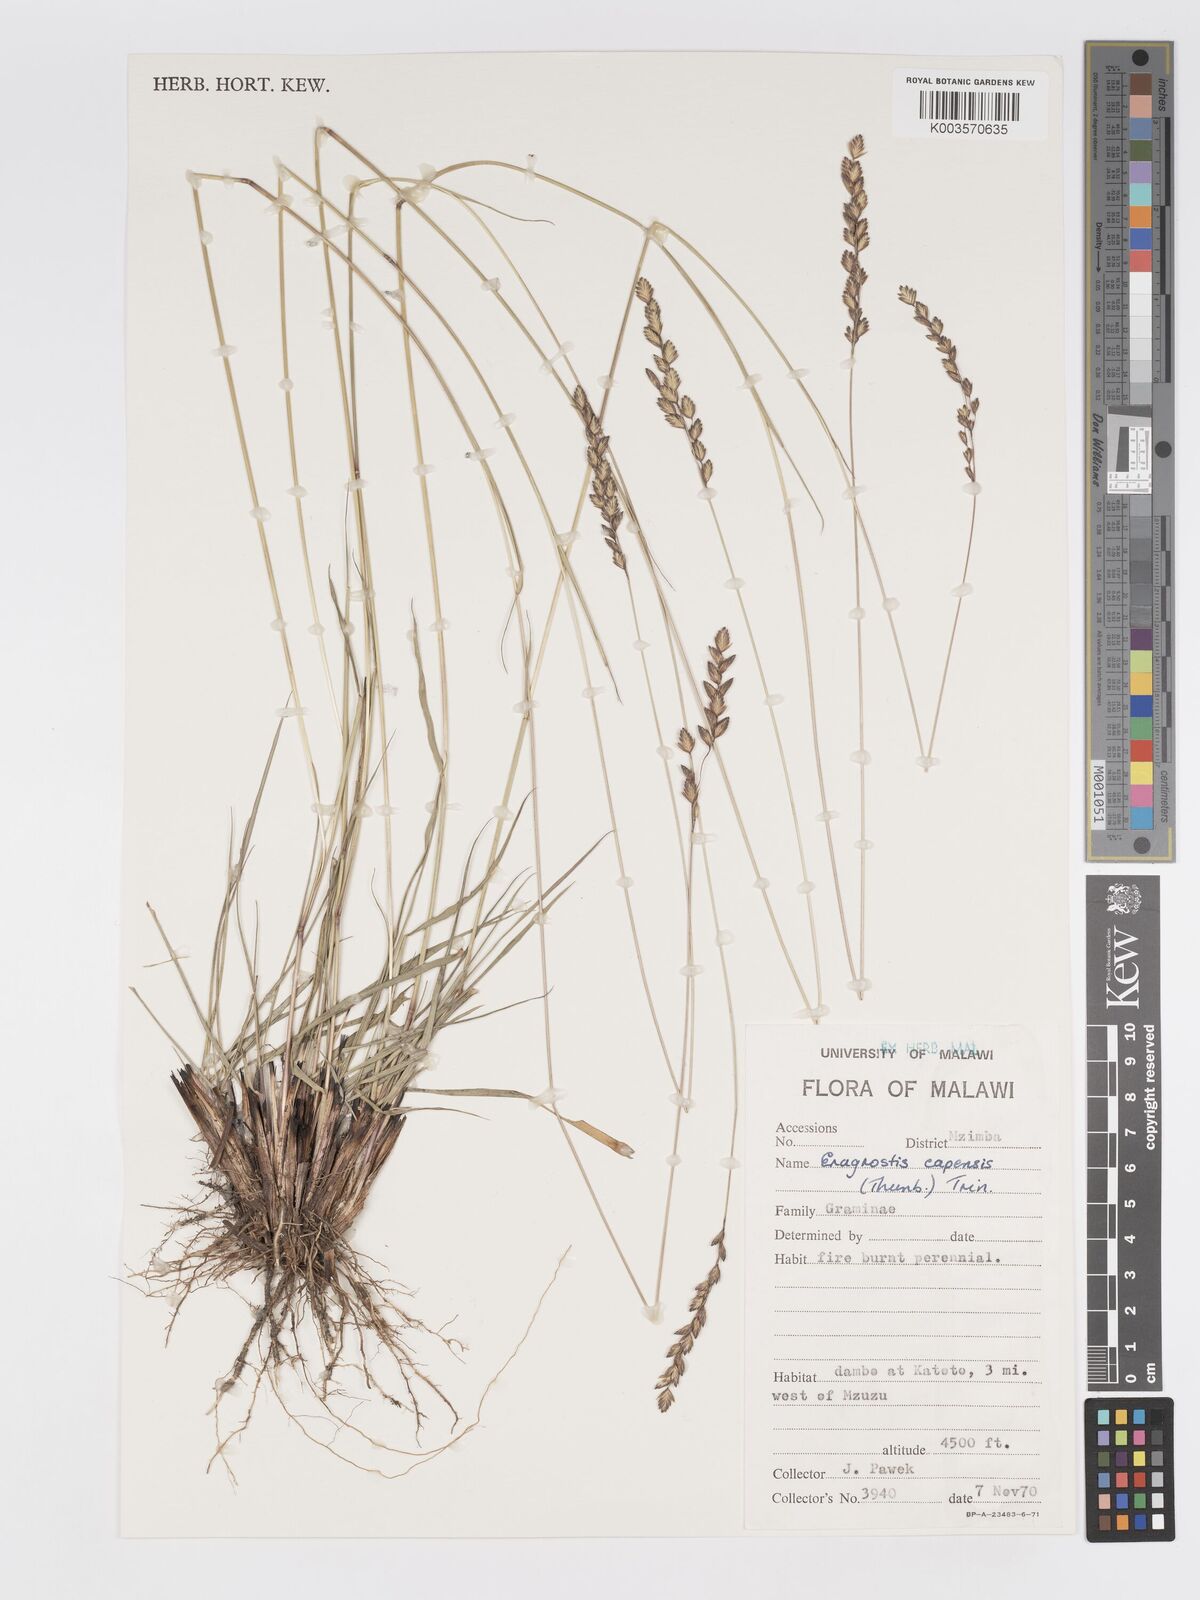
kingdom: Plantae
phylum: Tracheophyta
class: Liliopsida
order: Poales
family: Poaceae
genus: Eragrostis
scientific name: Eragrostis capensis
